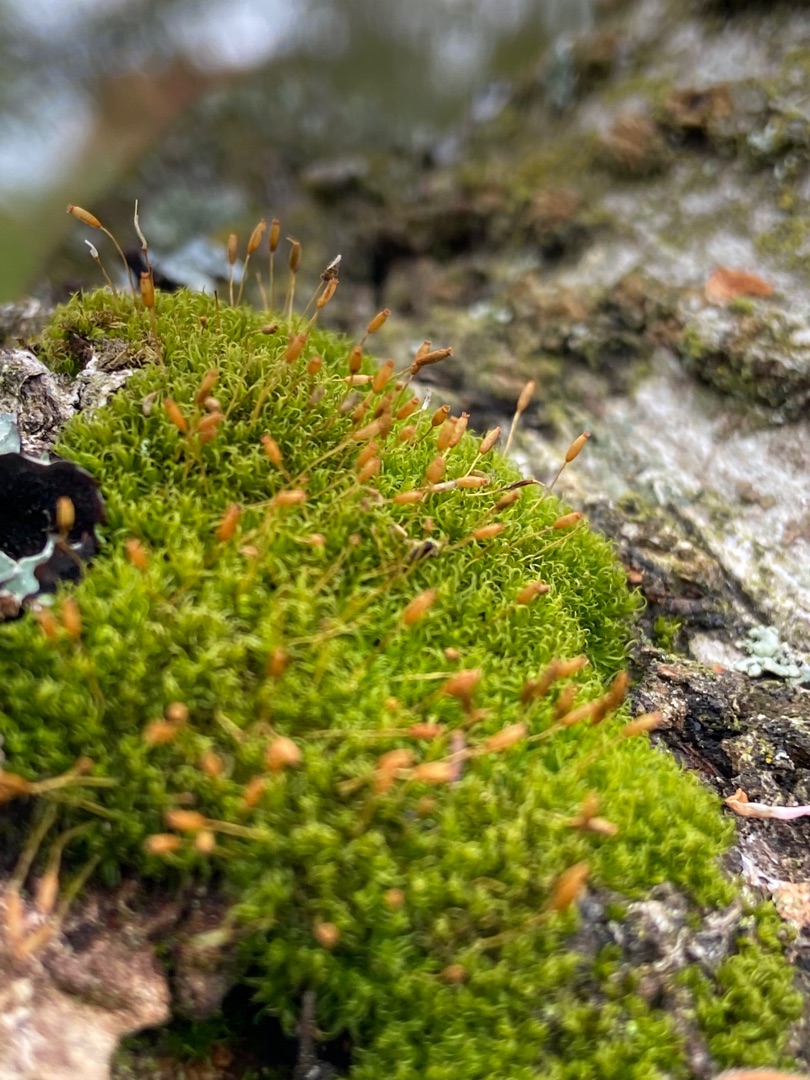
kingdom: Plantae
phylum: Bryophyta
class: Bryopsida
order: Dicranales
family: Rhabdoweisiaceae
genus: Dicranoweisia
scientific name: Dicranoweisia cirrata
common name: Almindelig krøltuemos
